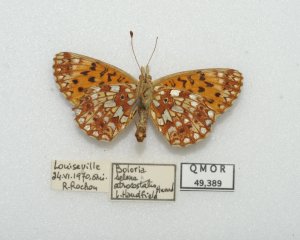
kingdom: Animalia
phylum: Arthropoda
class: Insecta
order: Lepidoptera
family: Nymphalidae
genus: Boloria
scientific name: Boloria selene
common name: Silver-bordered Fritillary
